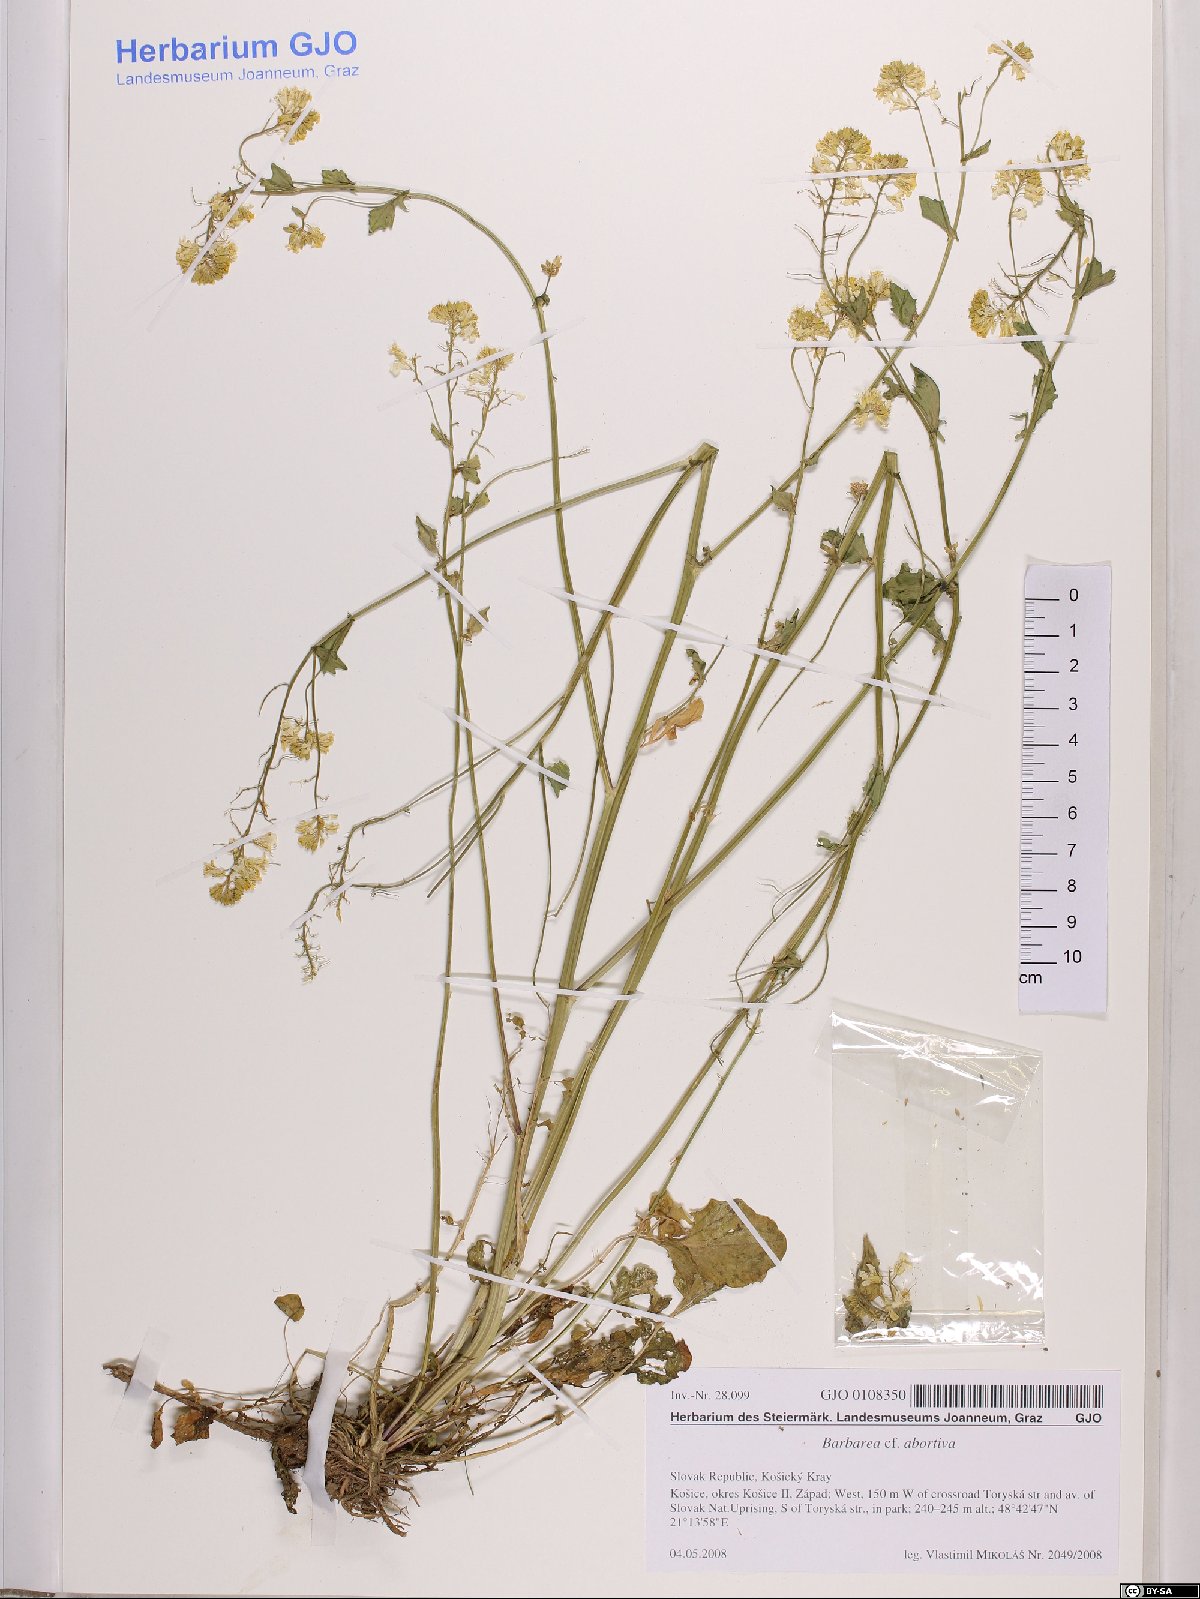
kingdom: Plantae
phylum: Tracheophyta
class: Magnoliopsida
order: Brassicales
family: Brassicaceae
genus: Barbarea
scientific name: Barbarea vulgaris
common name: Cressy-greens
